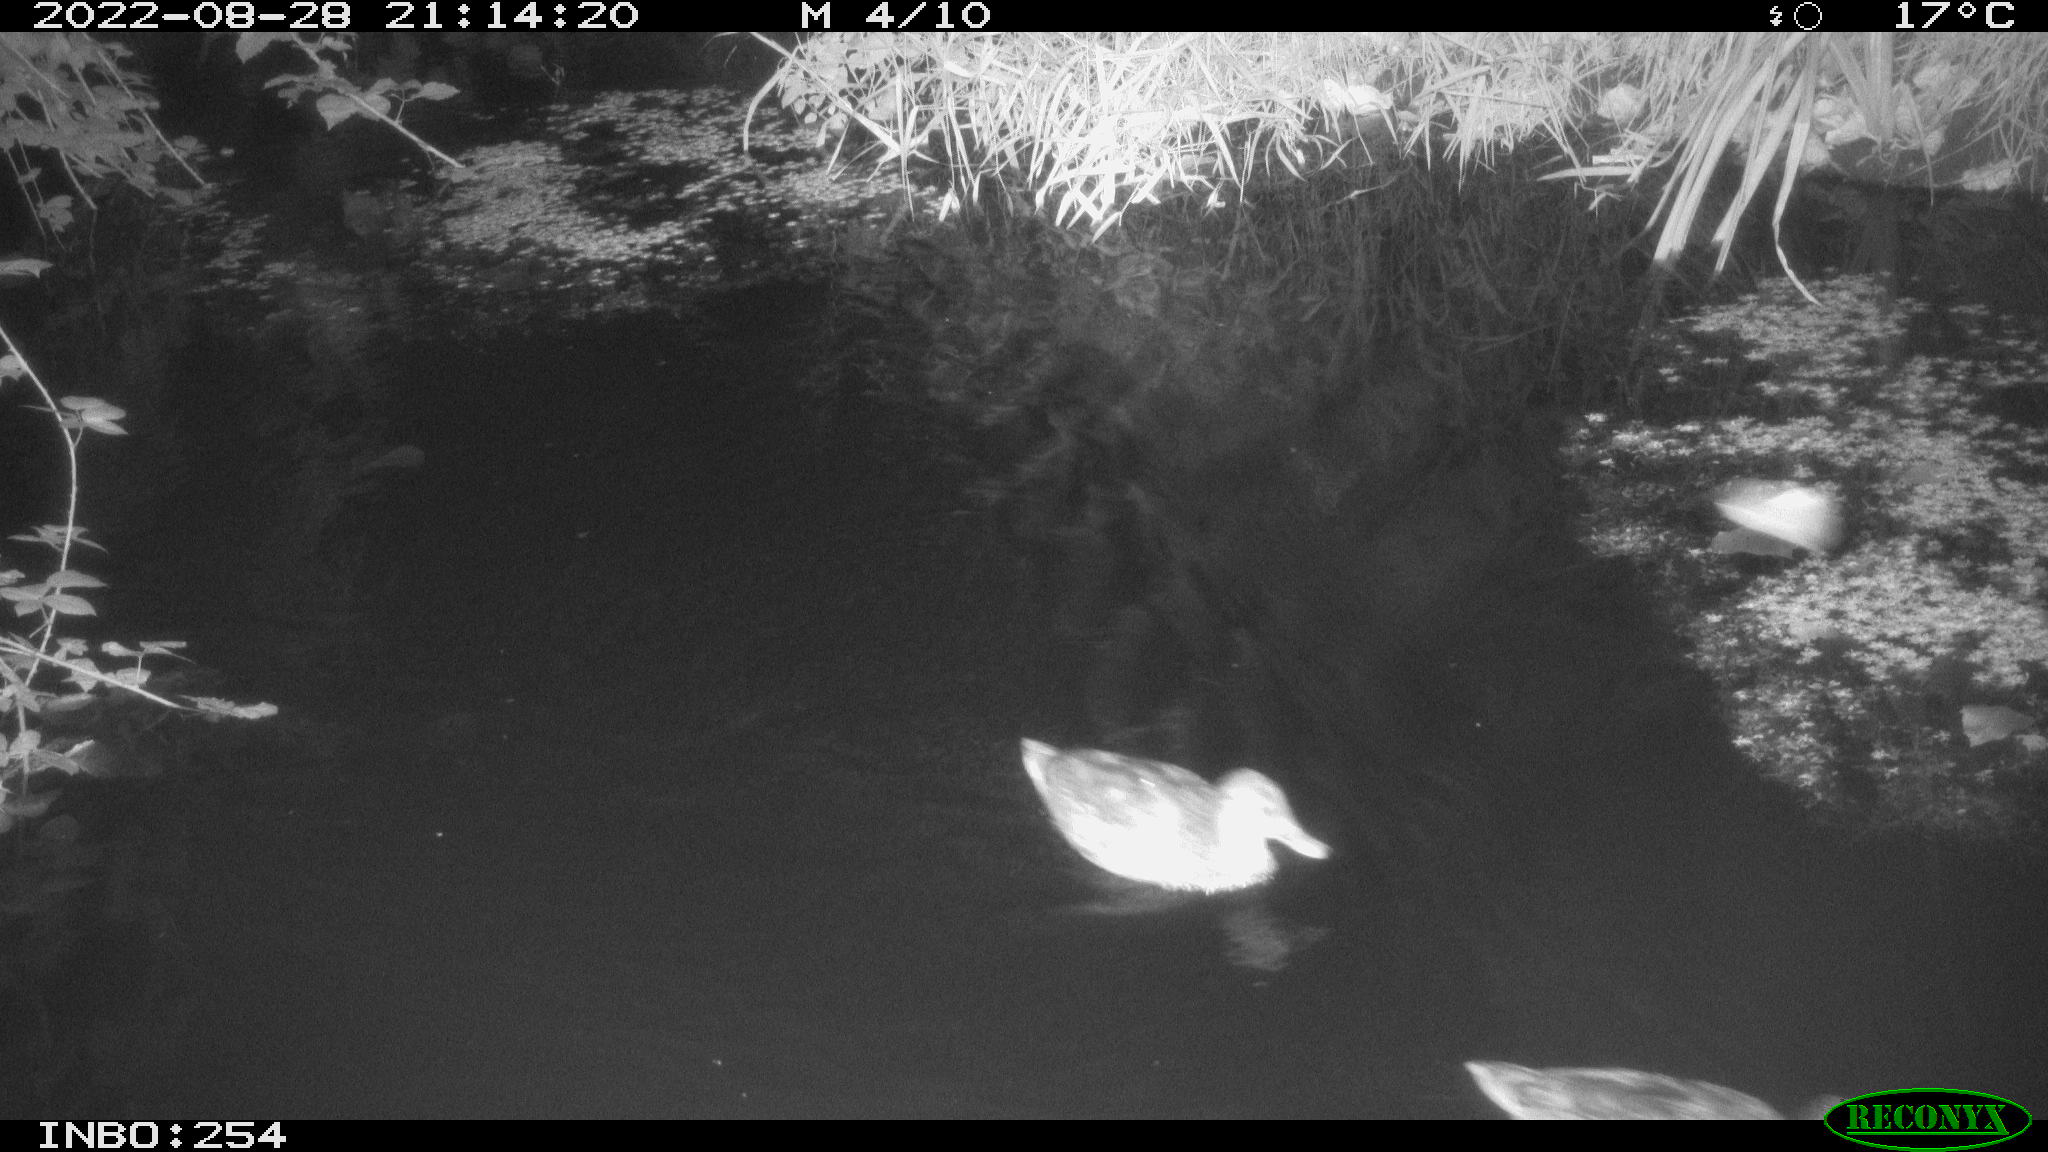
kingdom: Animalia
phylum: Chordata
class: Aves
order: Anseriformes
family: Anatidae
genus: Anas
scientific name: Anas platyrhynchos
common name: Mallard
